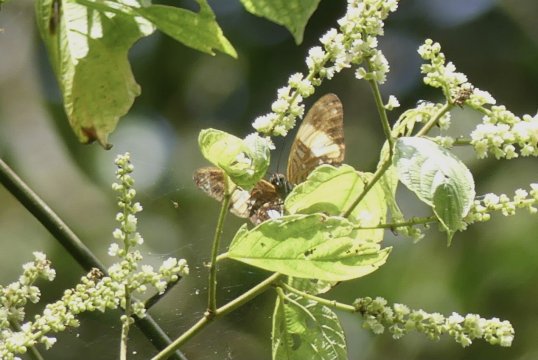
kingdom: Animalia
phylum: Arthropoda
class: Insecta
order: Lepidoptera
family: Nymphalidae
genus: Limenitis
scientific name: Limenitis leucophthalma
